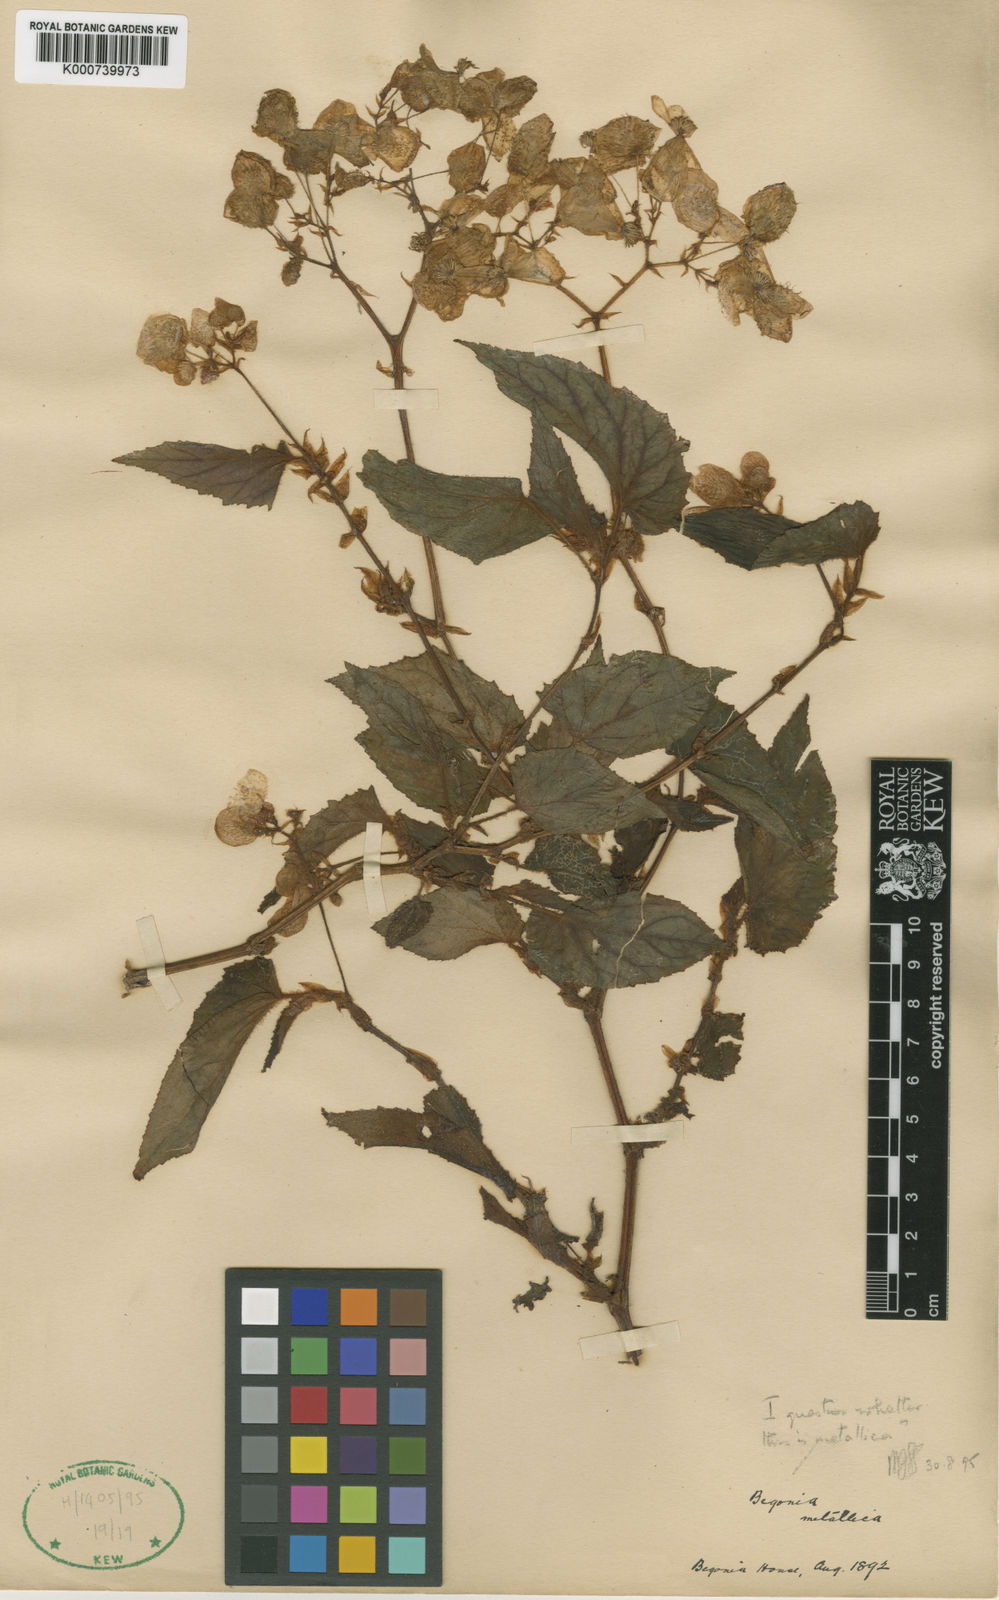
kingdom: Plantae
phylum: Tracheophyta
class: Magnoliopsida
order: Cucurbitales
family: Begoniaceae
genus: Begonia
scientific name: Begonia incarnata
